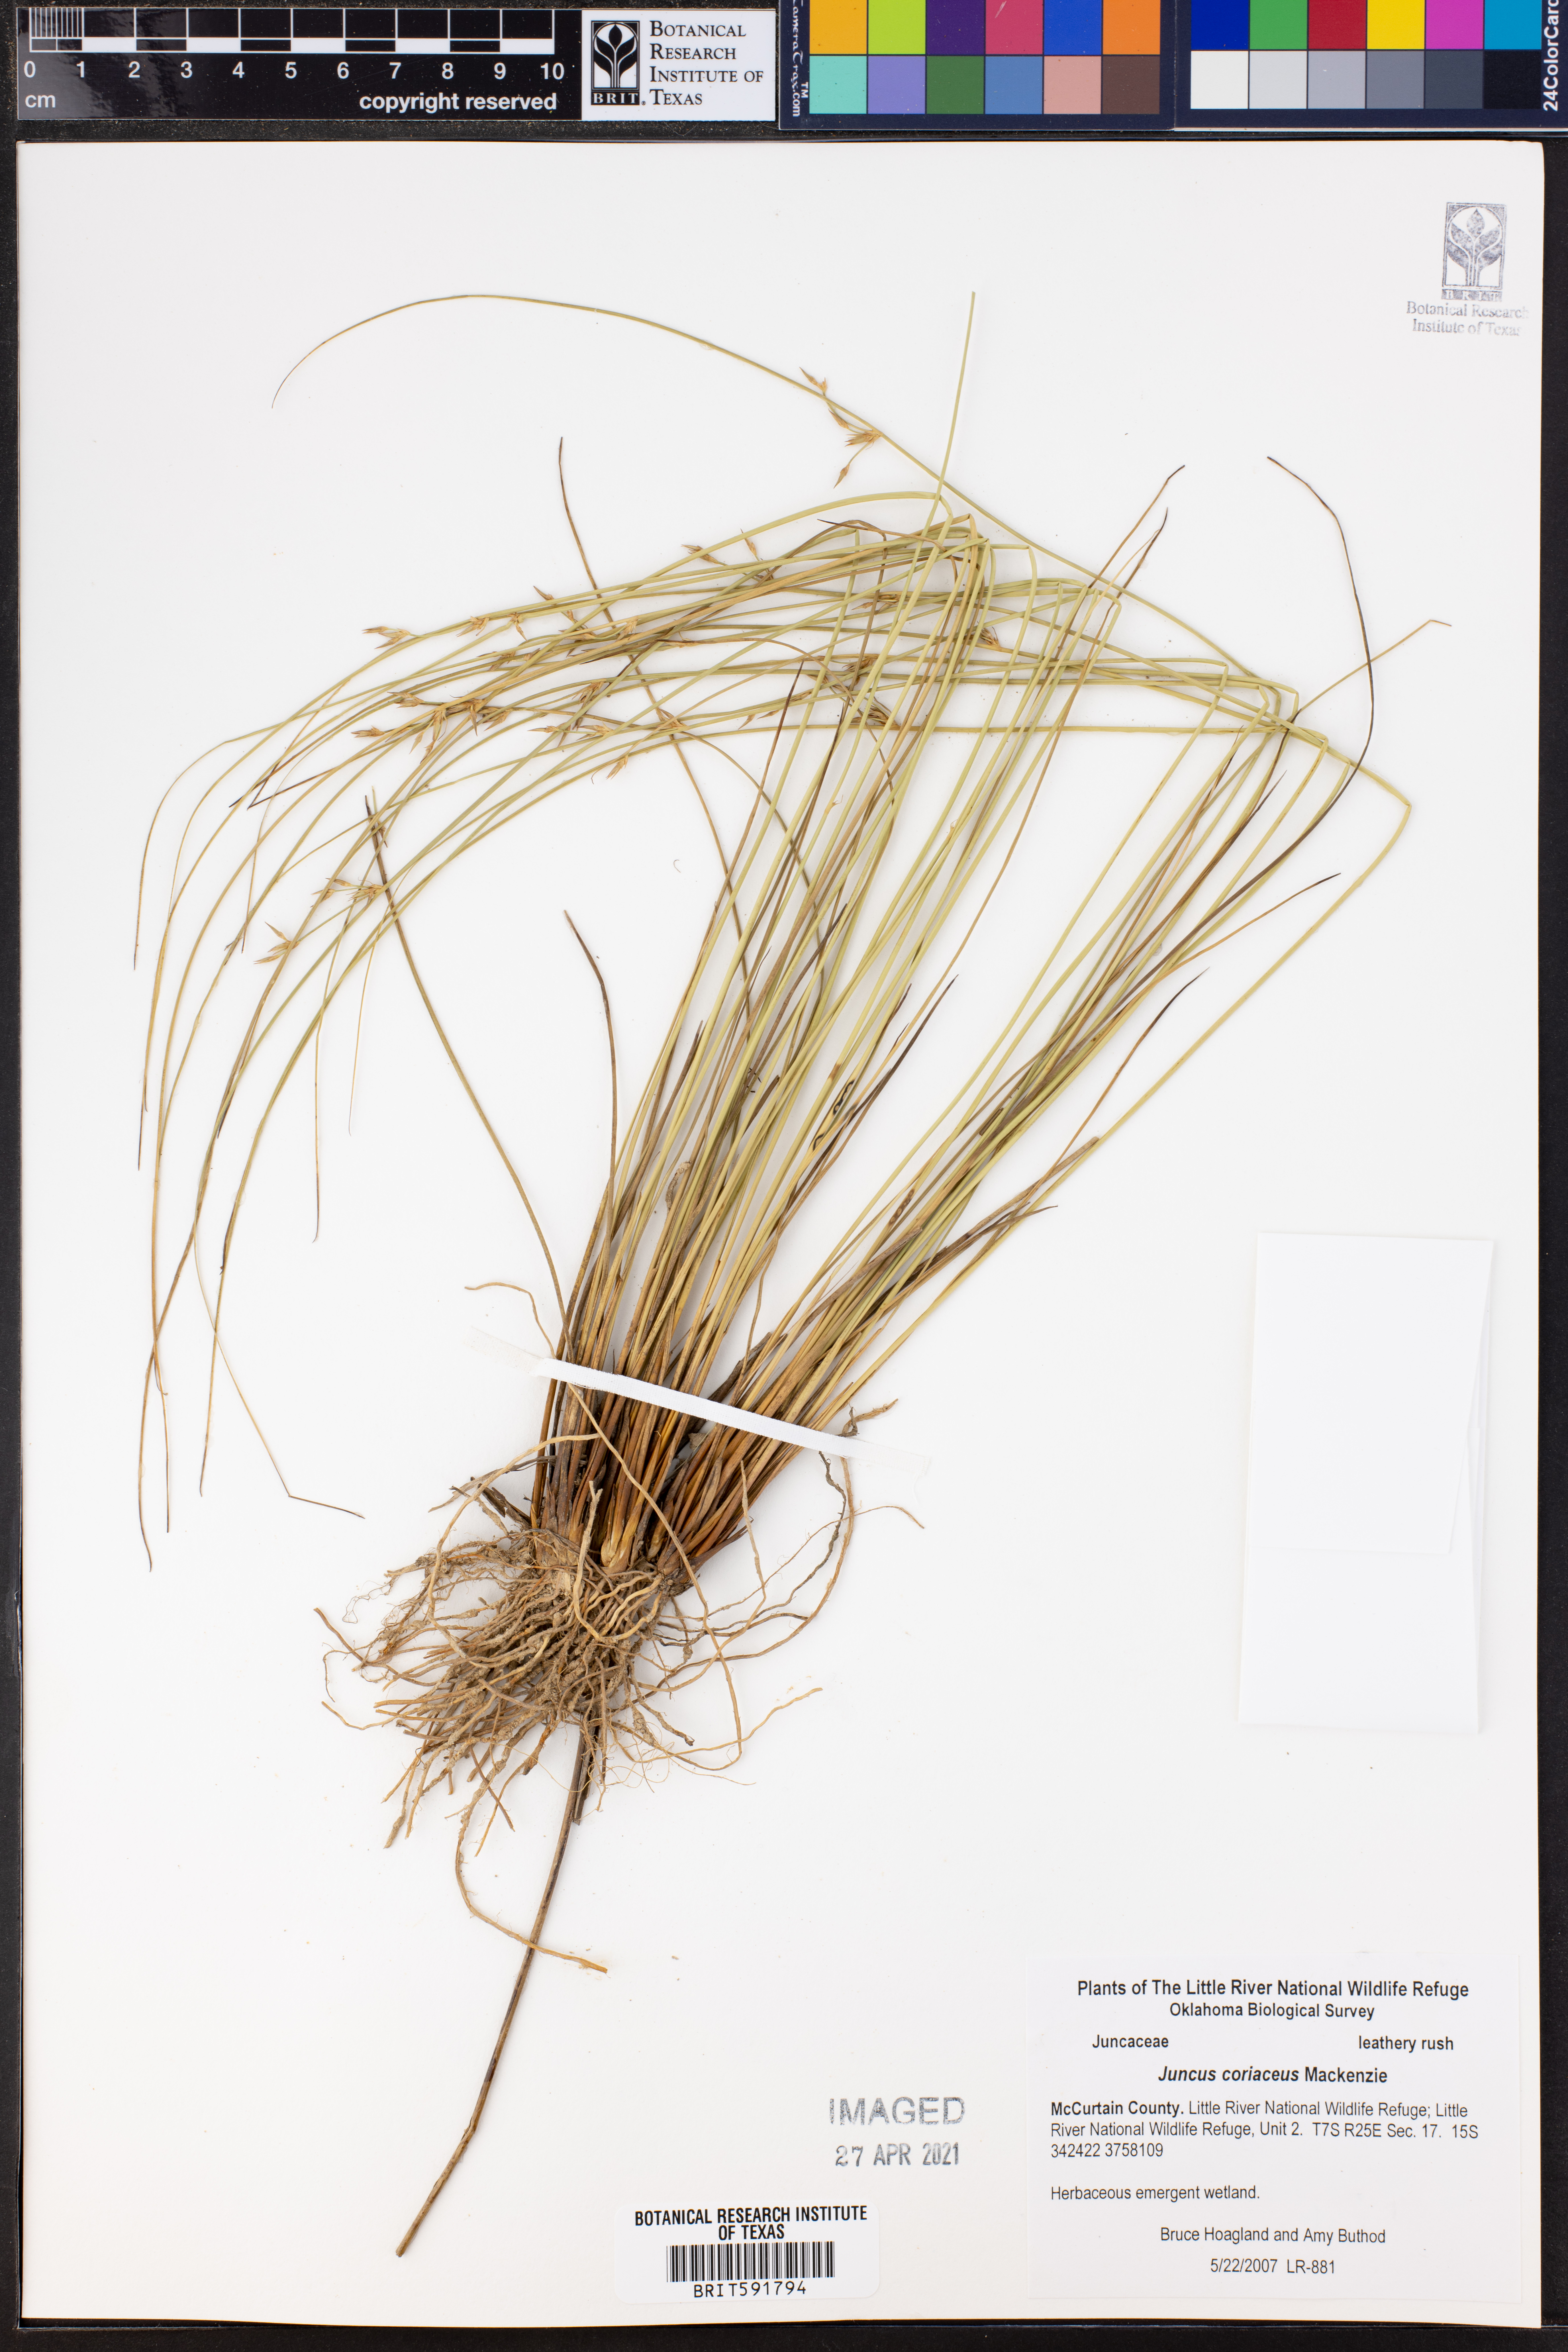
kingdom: Plantae
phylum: Tracheophyta
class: Liliopsida
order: Poales
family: Juncaceae
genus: Juncus
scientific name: Juncus coriaceus
